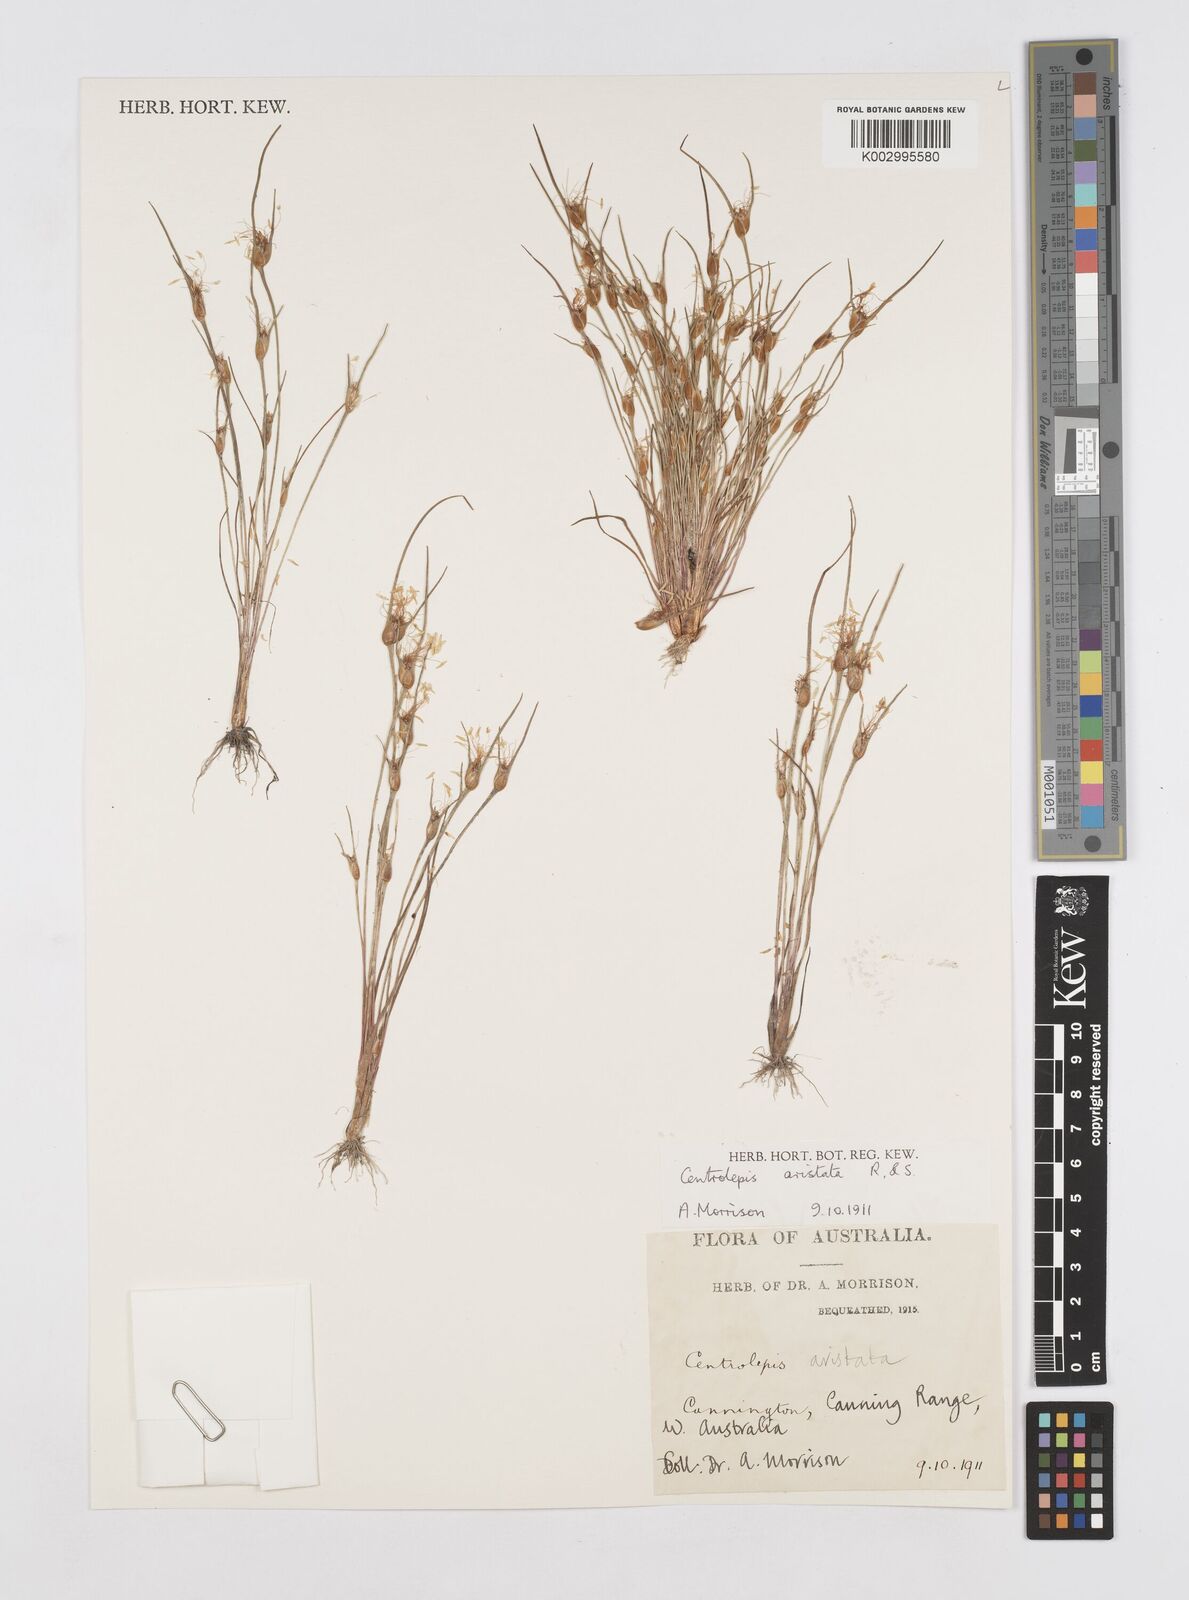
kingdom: Plantae
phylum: Tracheophyta
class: Liliopsida
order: Poales
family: Restionaceae
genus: Centrolepis
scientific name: Centrolepis aristata
